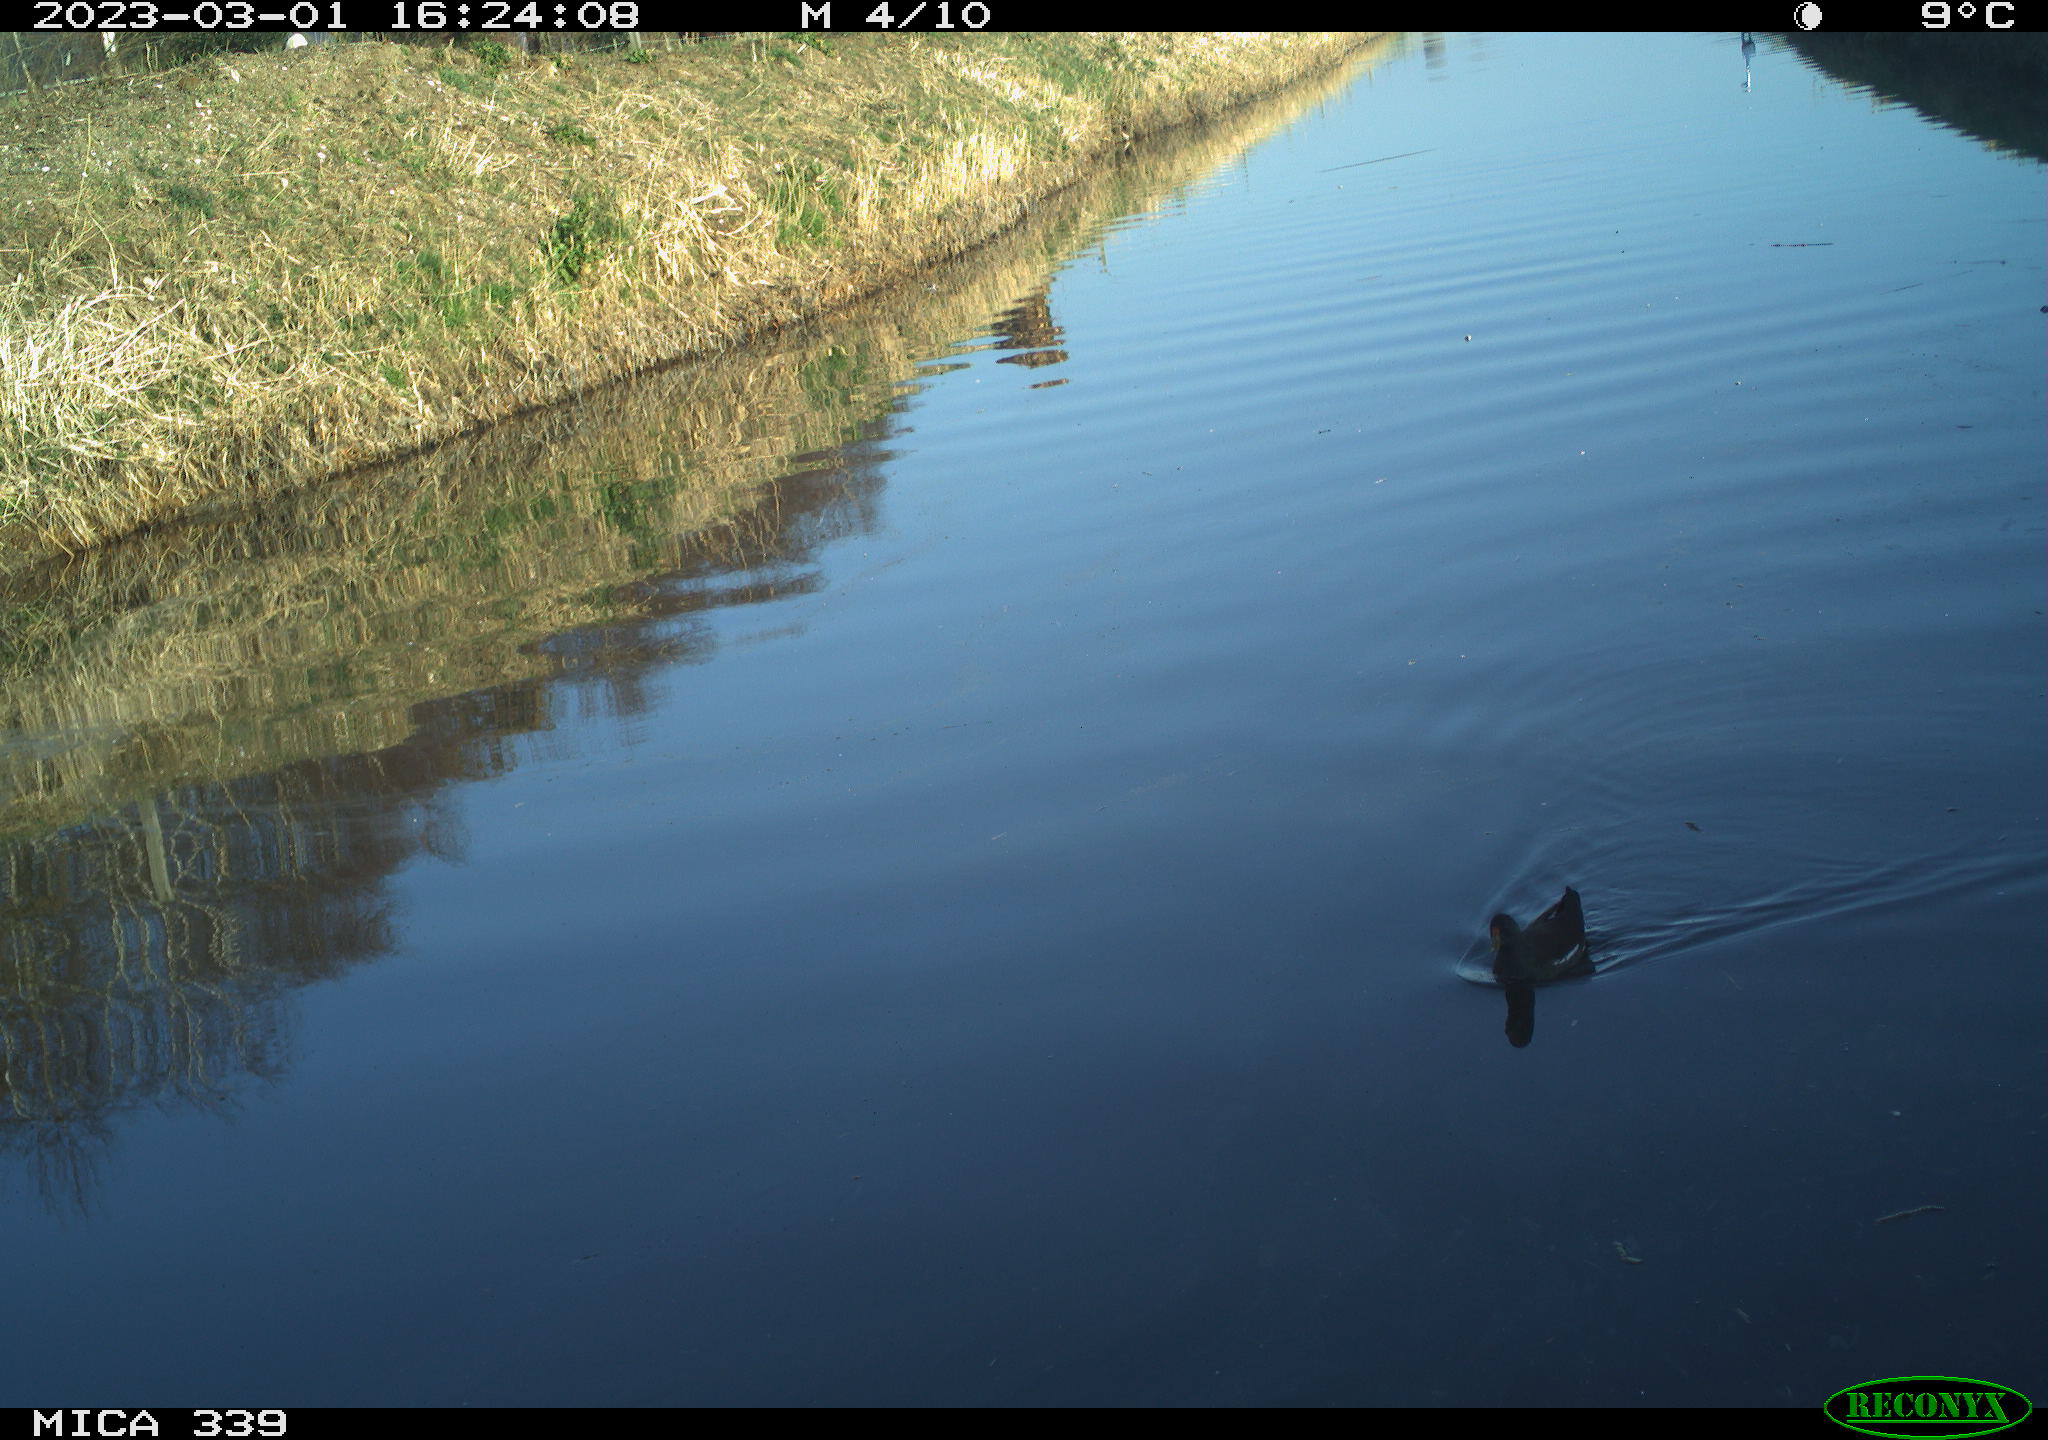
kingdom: Animalia
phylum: Chordata
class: Aves
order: Gruiformes
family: Rallidae
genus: Gallinula
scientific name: Gallinula chloropus
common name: Common moorhen
